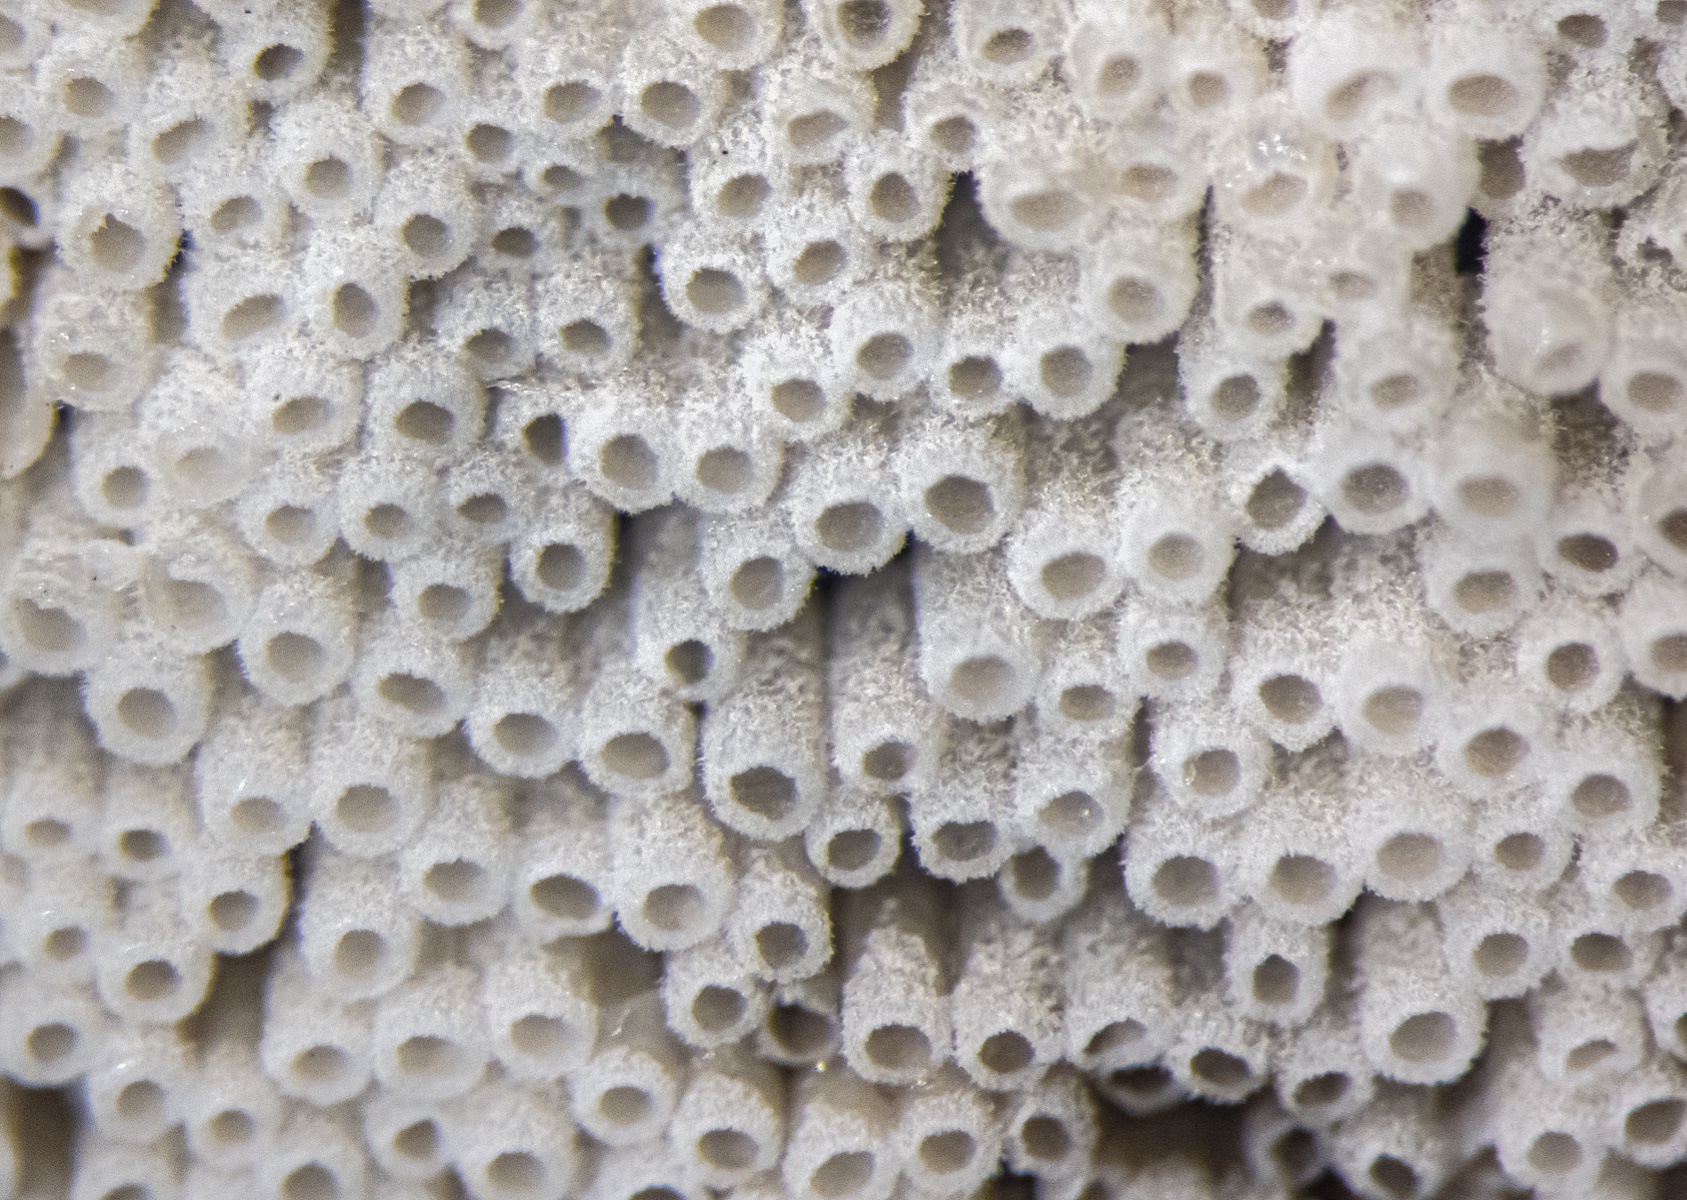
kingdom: Fungi
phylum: Basidiomycota
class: Agaricomycetes
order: Agaricales
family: Marasmiaceae
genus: Henningsomyces
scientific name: Henningsomyces puber
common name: dunet hængerør
